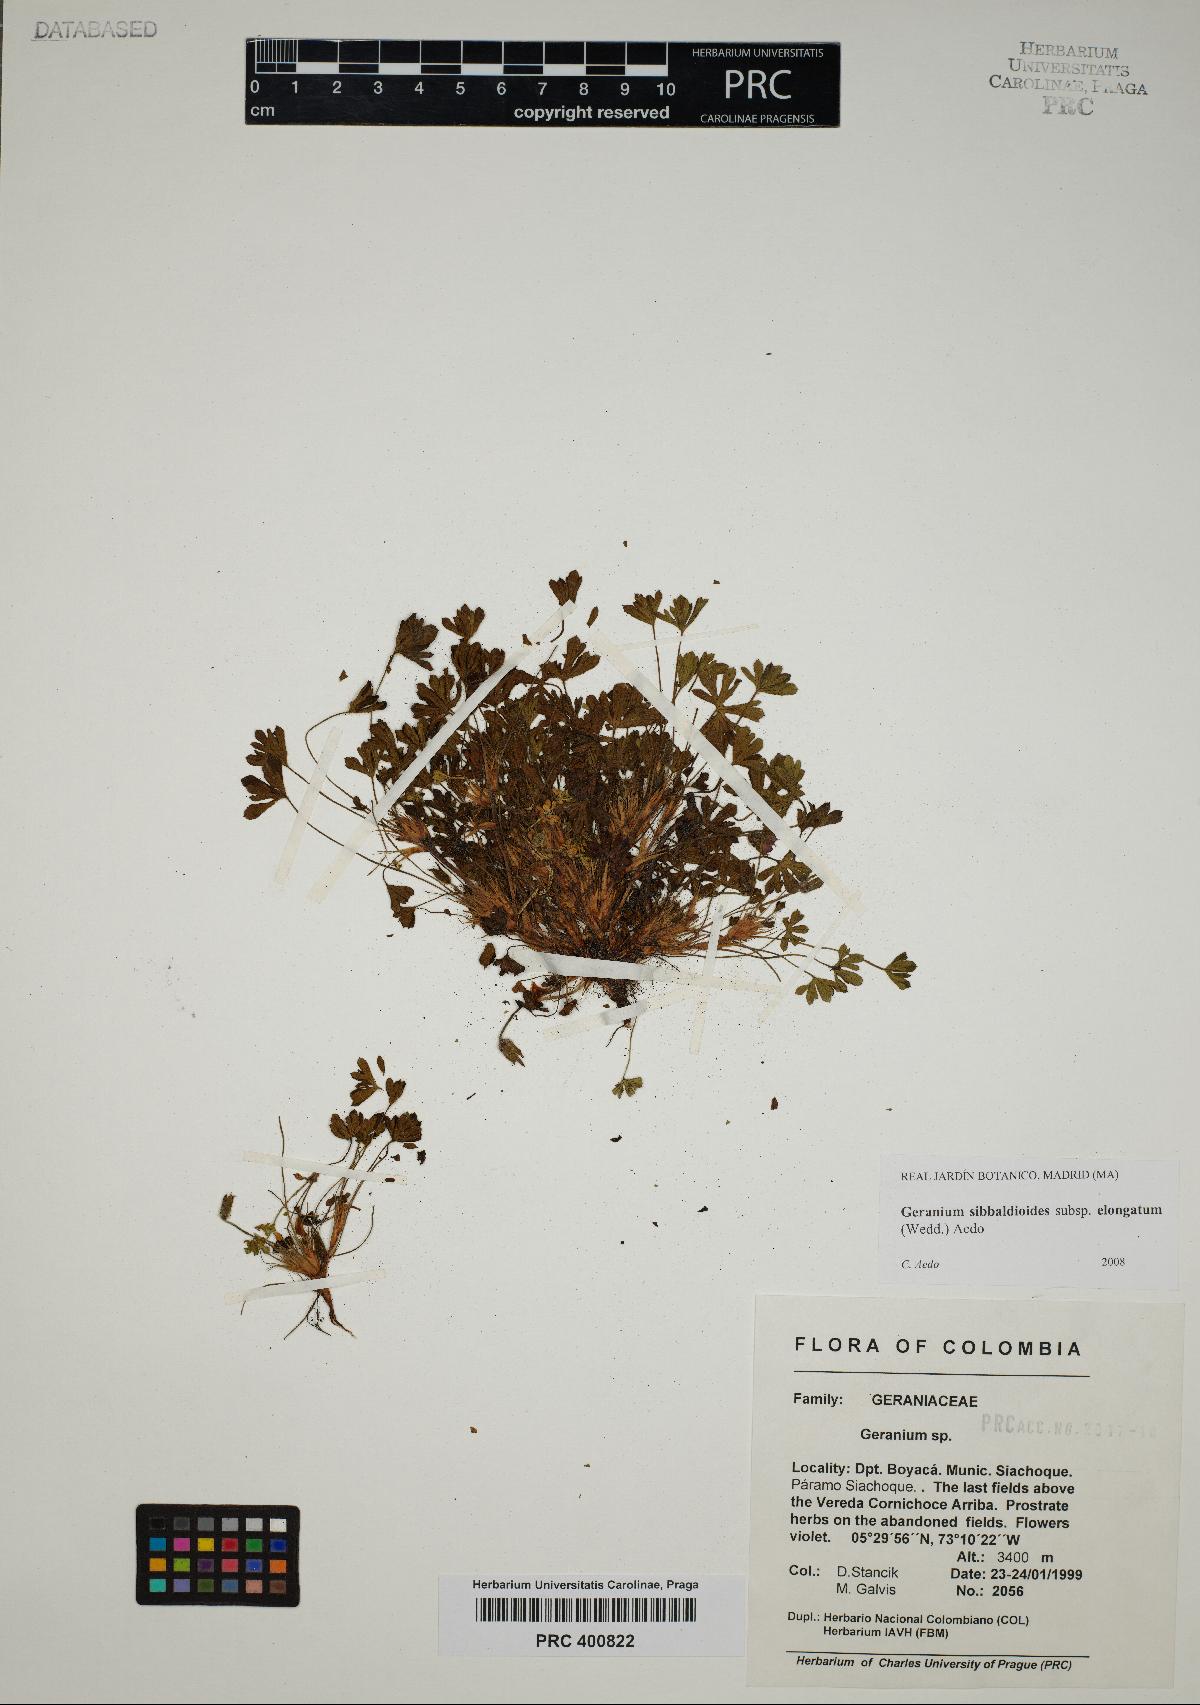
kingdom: Plantae
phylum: Tracheophyta
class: Magnoliopsida
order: Geraniales
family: Geraniaceae
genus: Geranium
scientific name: Geranium sibbaldioides
